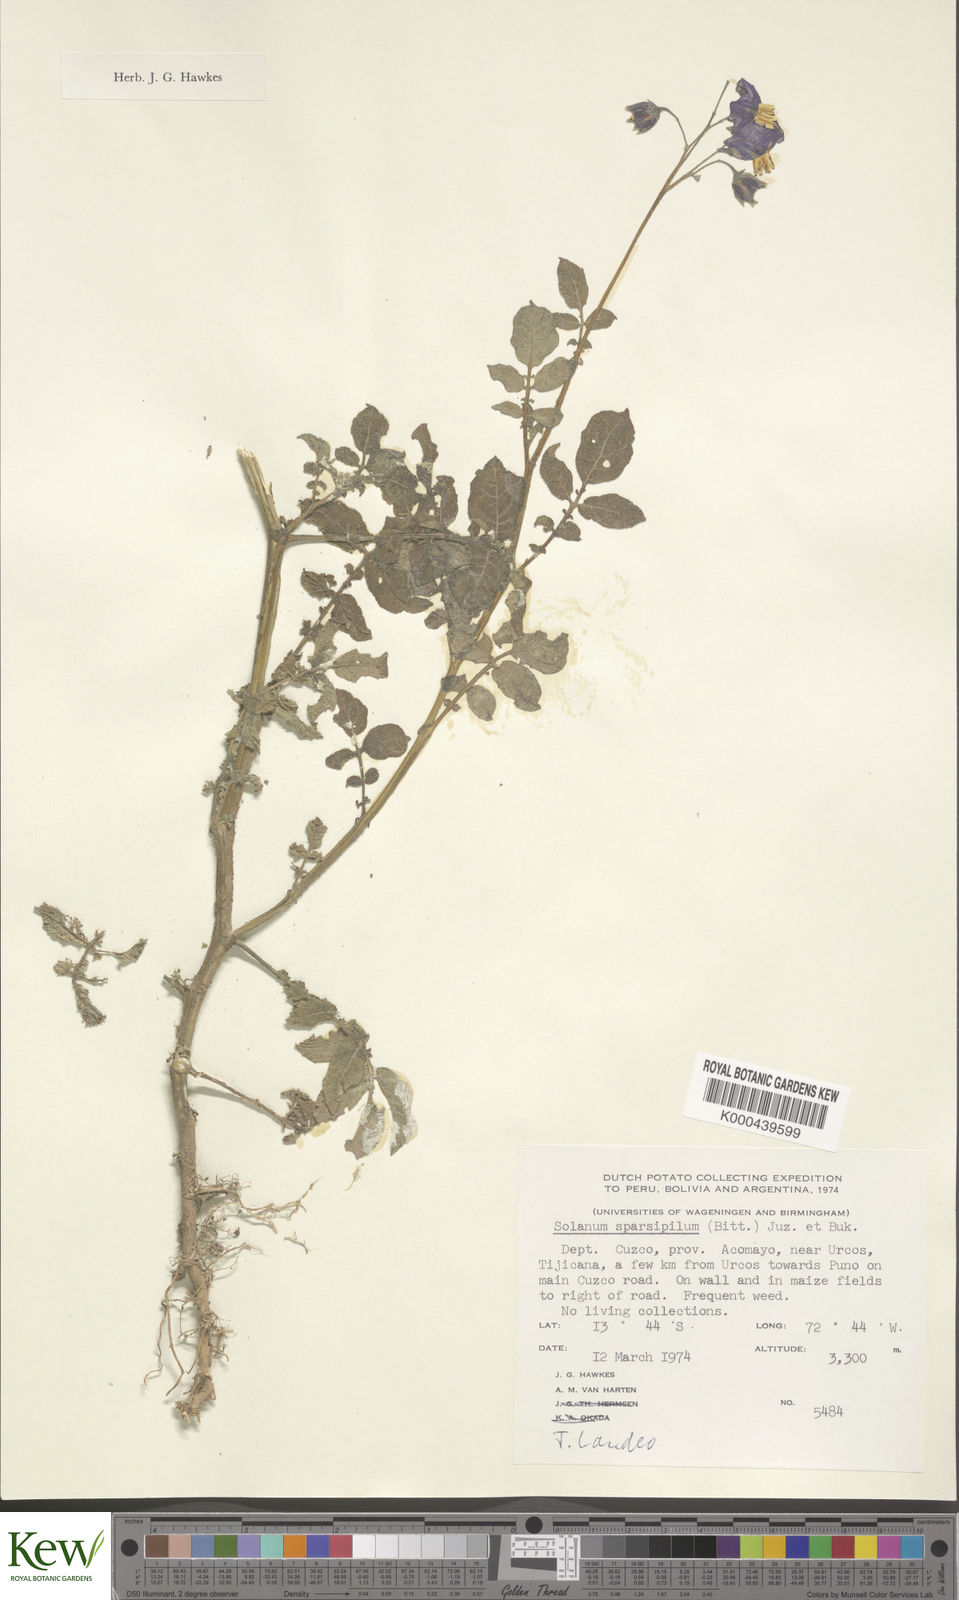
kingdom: Plantae
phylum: Tracheophyta
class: Magnoliopsida
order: Solanales
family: Solanaceae
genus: Solanum
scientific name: Solanum brevicaule
